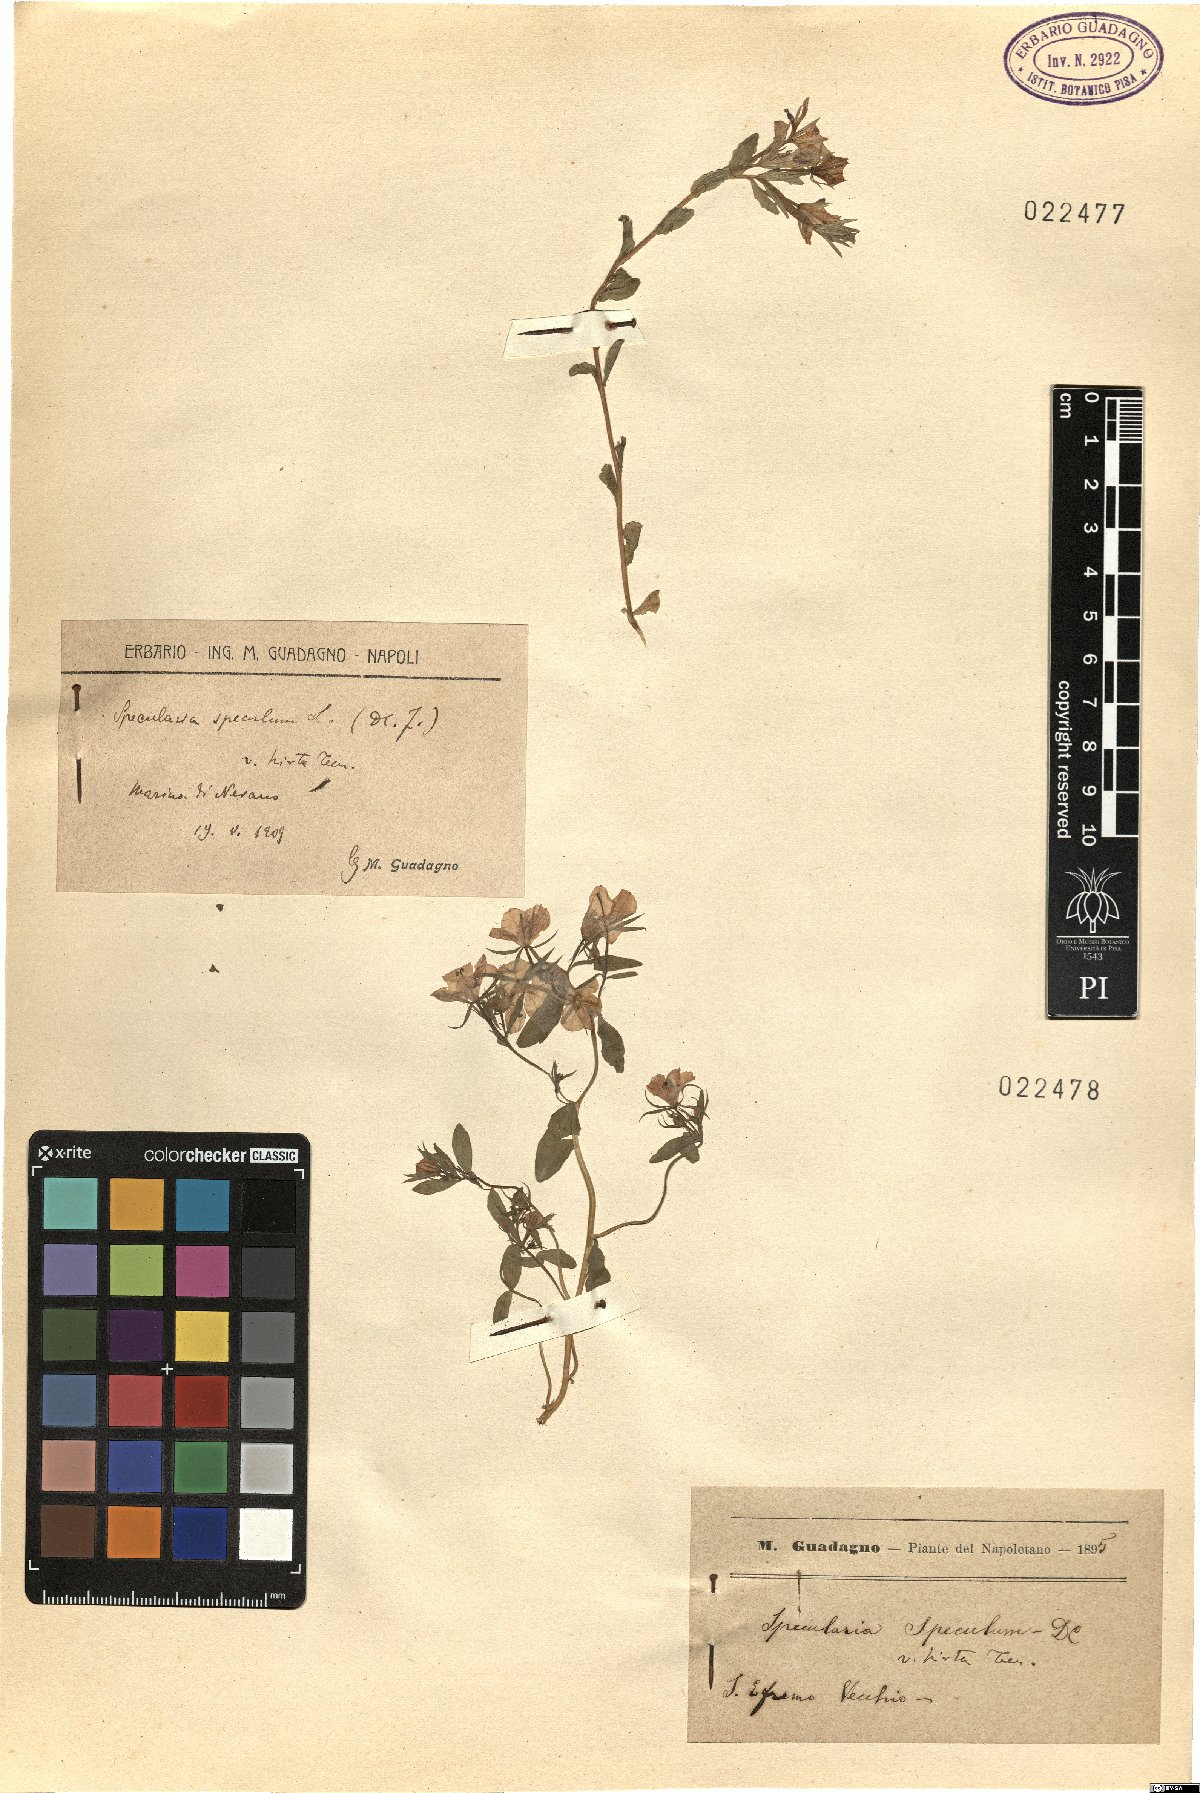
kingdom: Plantae
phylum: Tracheophyta
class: Magnoliopsida
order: Asterales
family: Campanulaceae
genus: Legousia
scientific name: Legousia speculum-veneris
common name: Large venus's-looking-glass
